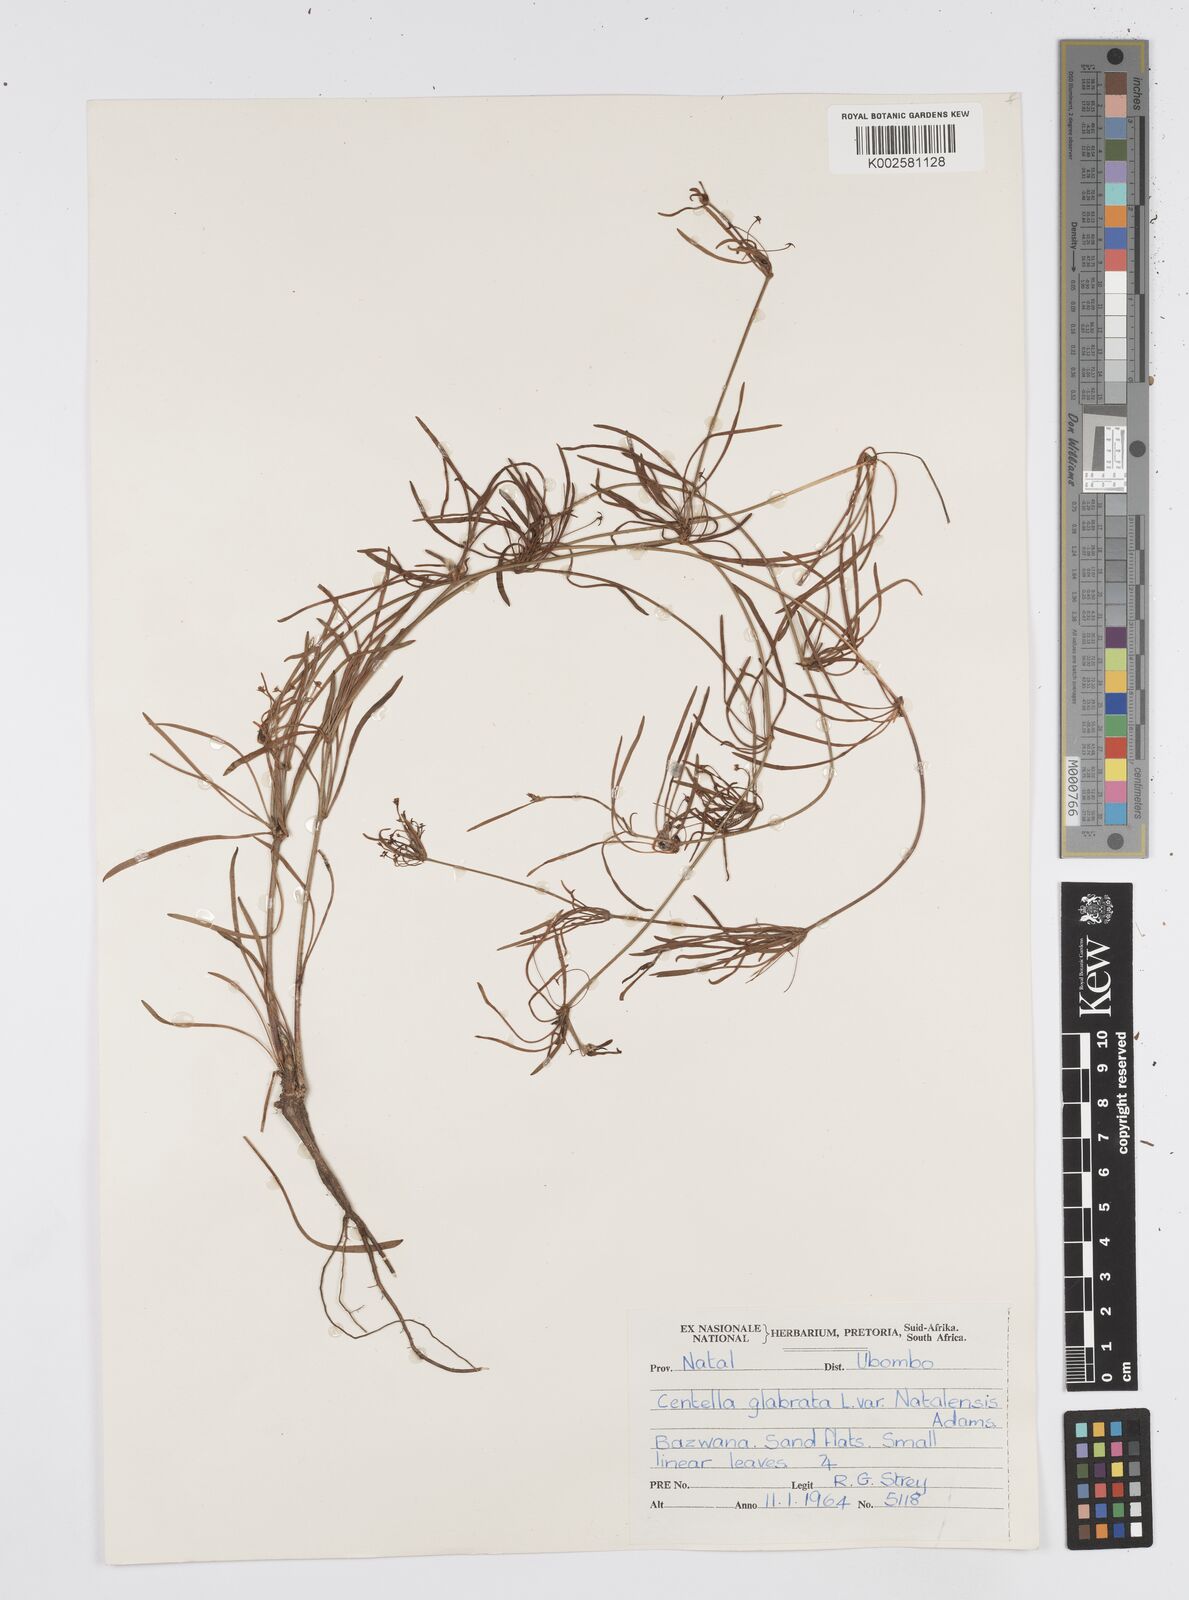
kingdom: Plantae
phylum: Tracheophyta
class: Magnoliopsida
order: Apiales
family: Apiaceae
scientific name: Apiaceae
